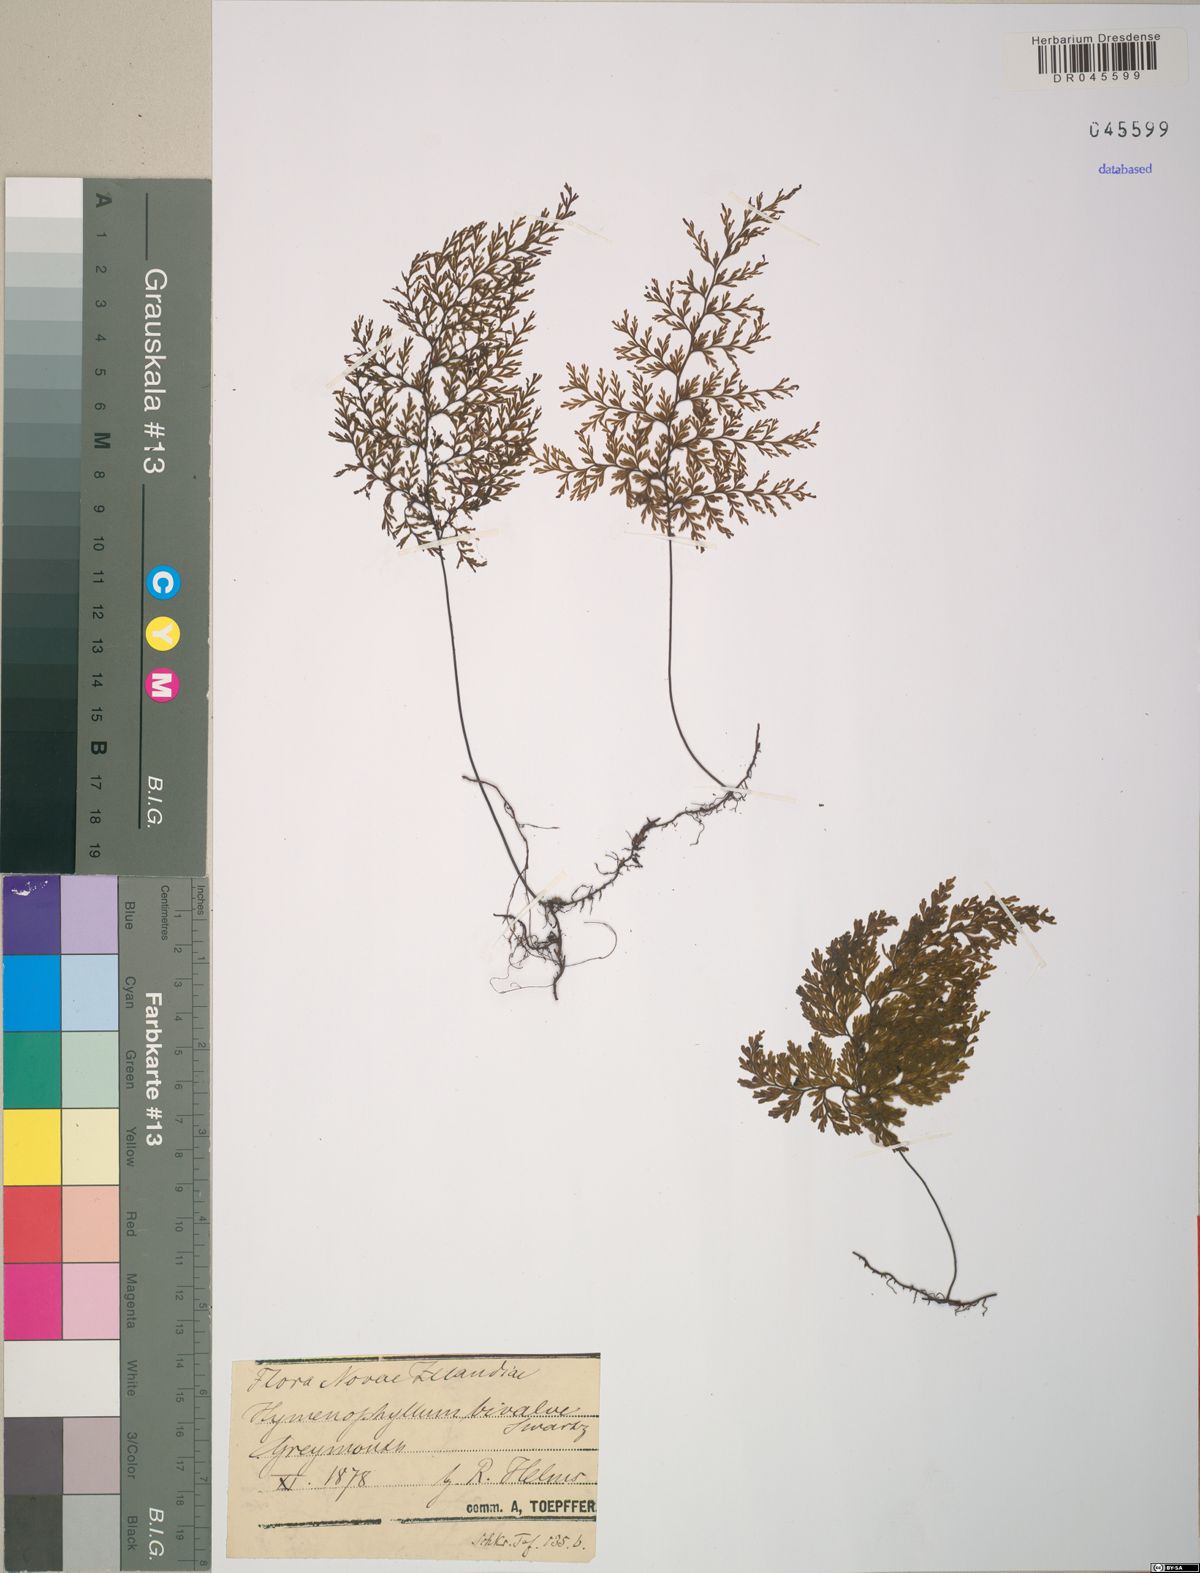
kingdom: Plantae
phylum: Tracheophyta
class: Polypodiopsida
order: Hymenophyllales
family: Hymenophyllaceae
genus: Hymenophyllum
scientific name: Hymenophyllum bivalve
